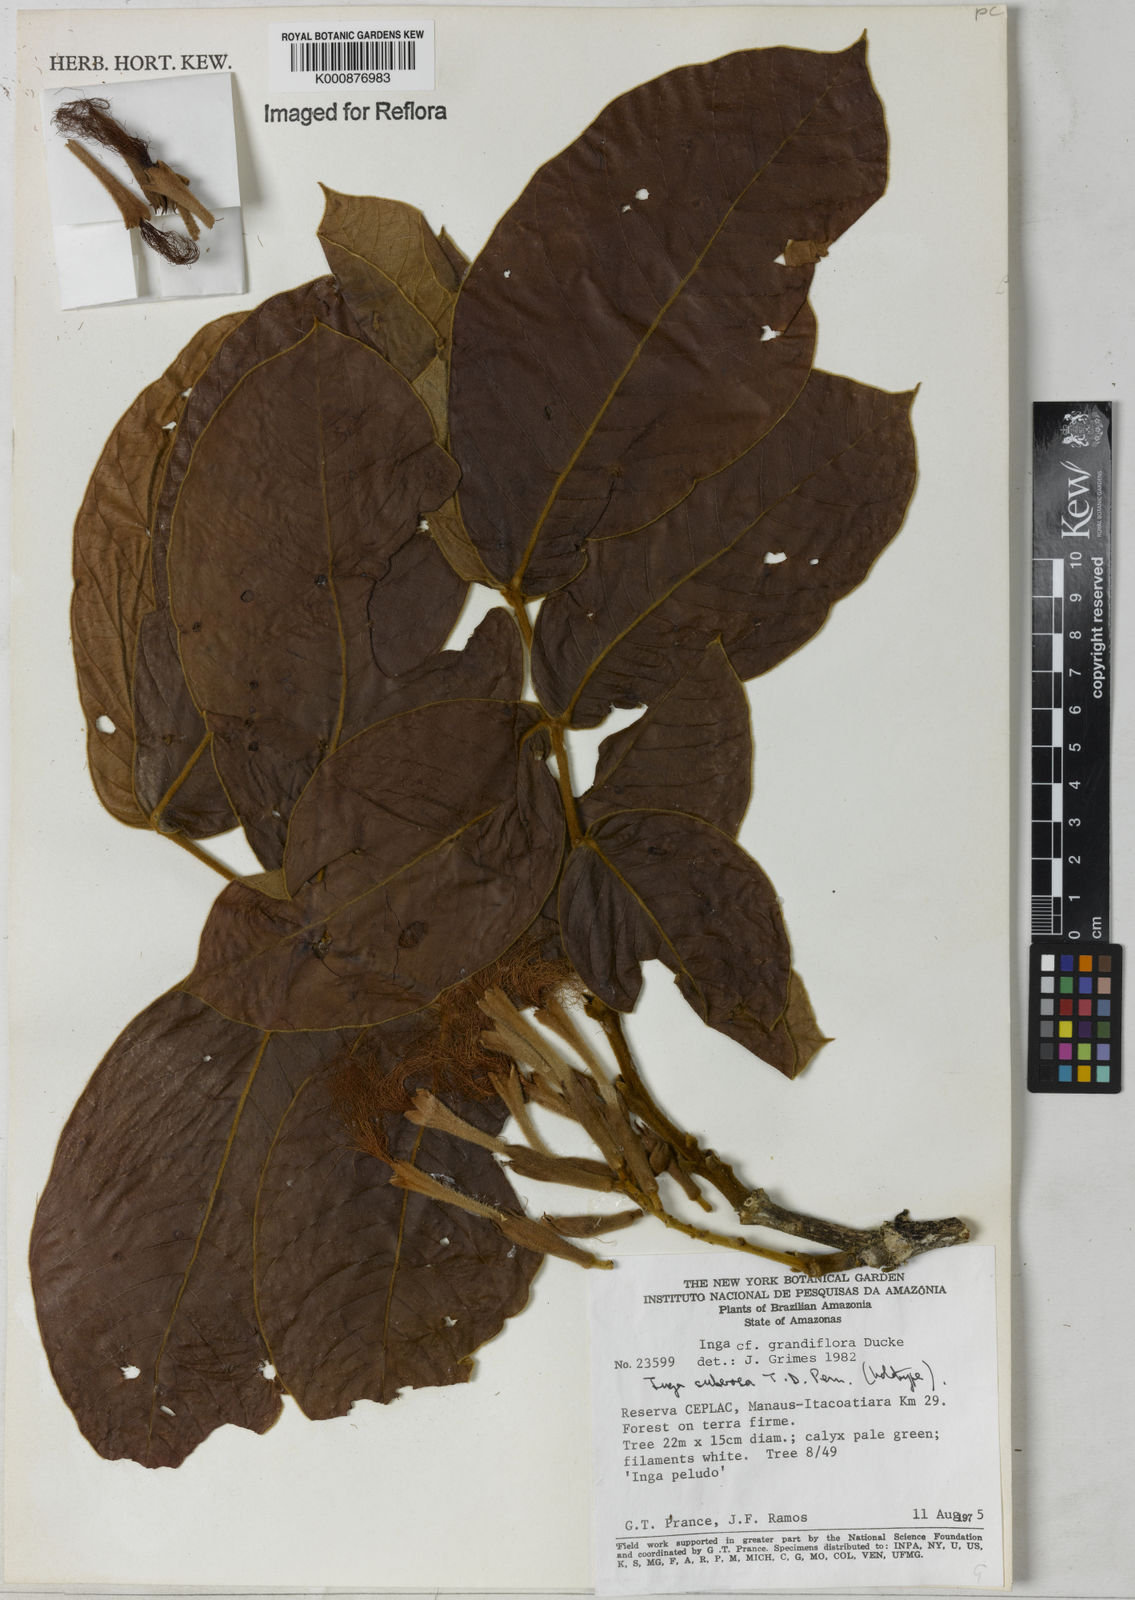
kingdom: Plantae
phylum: Tracheophyta
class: Magnoliopsida
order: Fabales
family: Fabaceae
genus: Inga
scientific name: Inga suberosa
